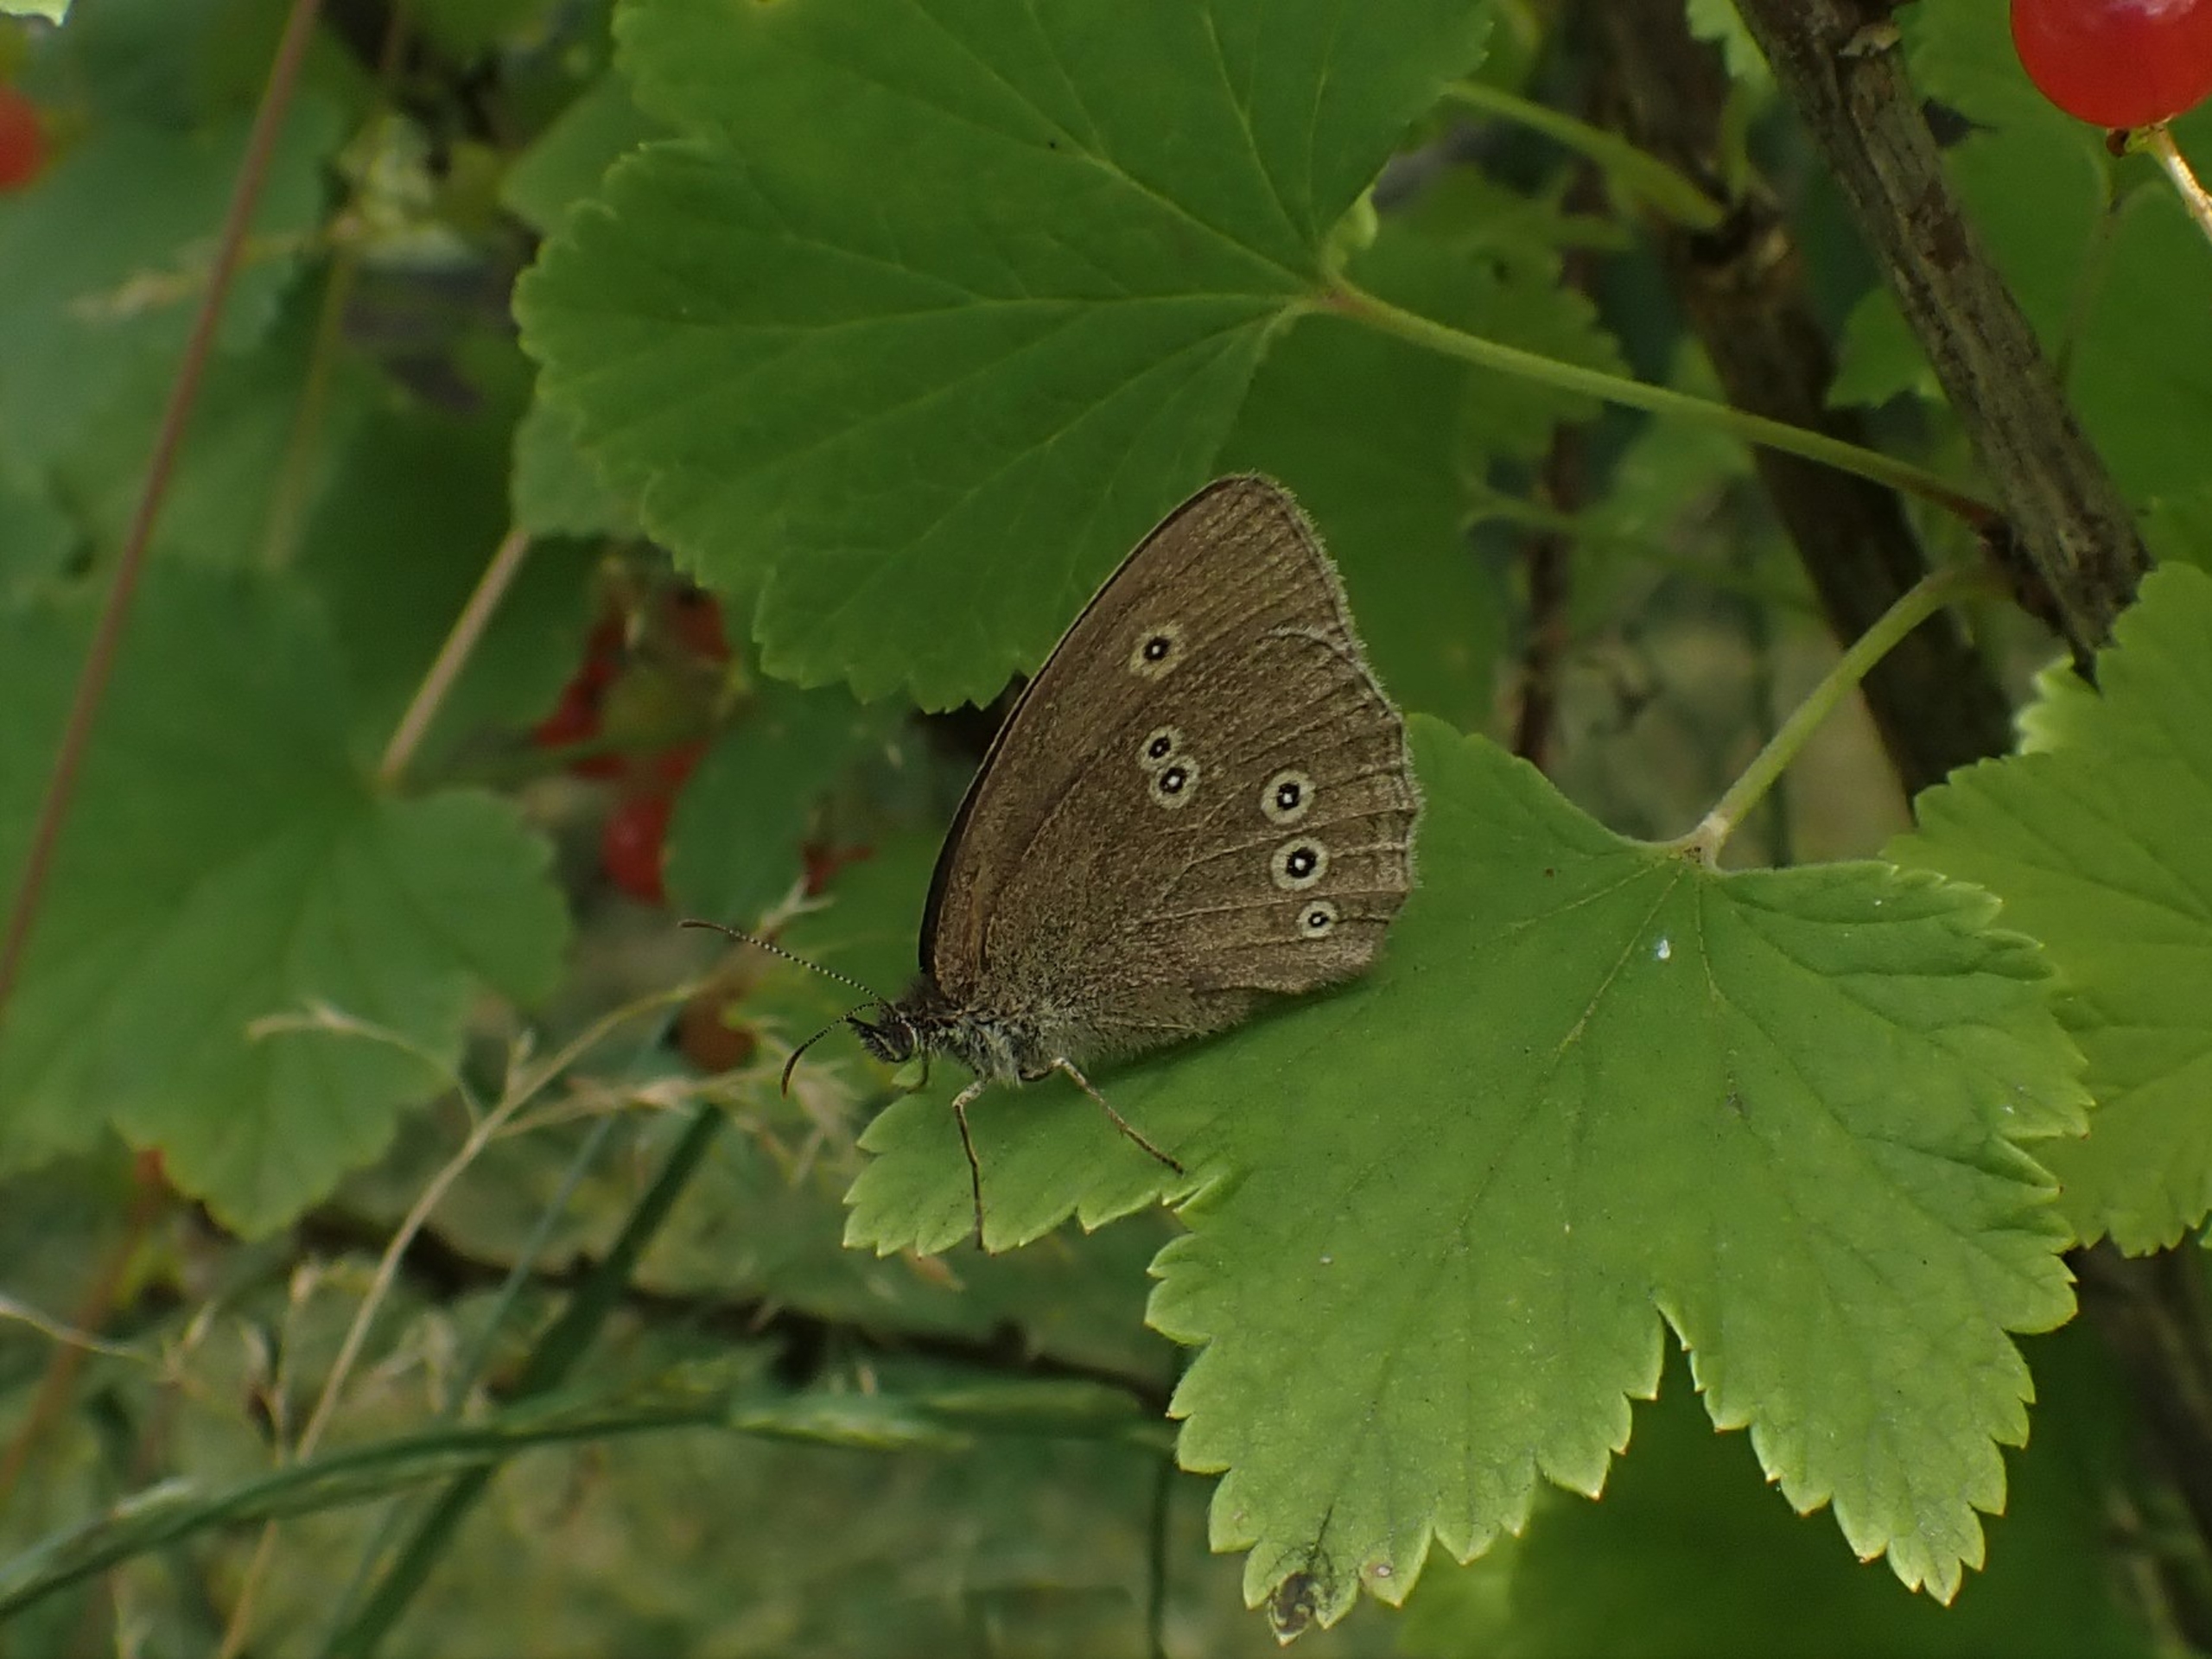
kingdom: Animalia
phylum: Arthropoda
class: Insecta
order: Lepidoptera
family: Nymphalidae
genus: Aphantopus
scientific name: Aphantopus hyperantus
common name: Engrandøje
